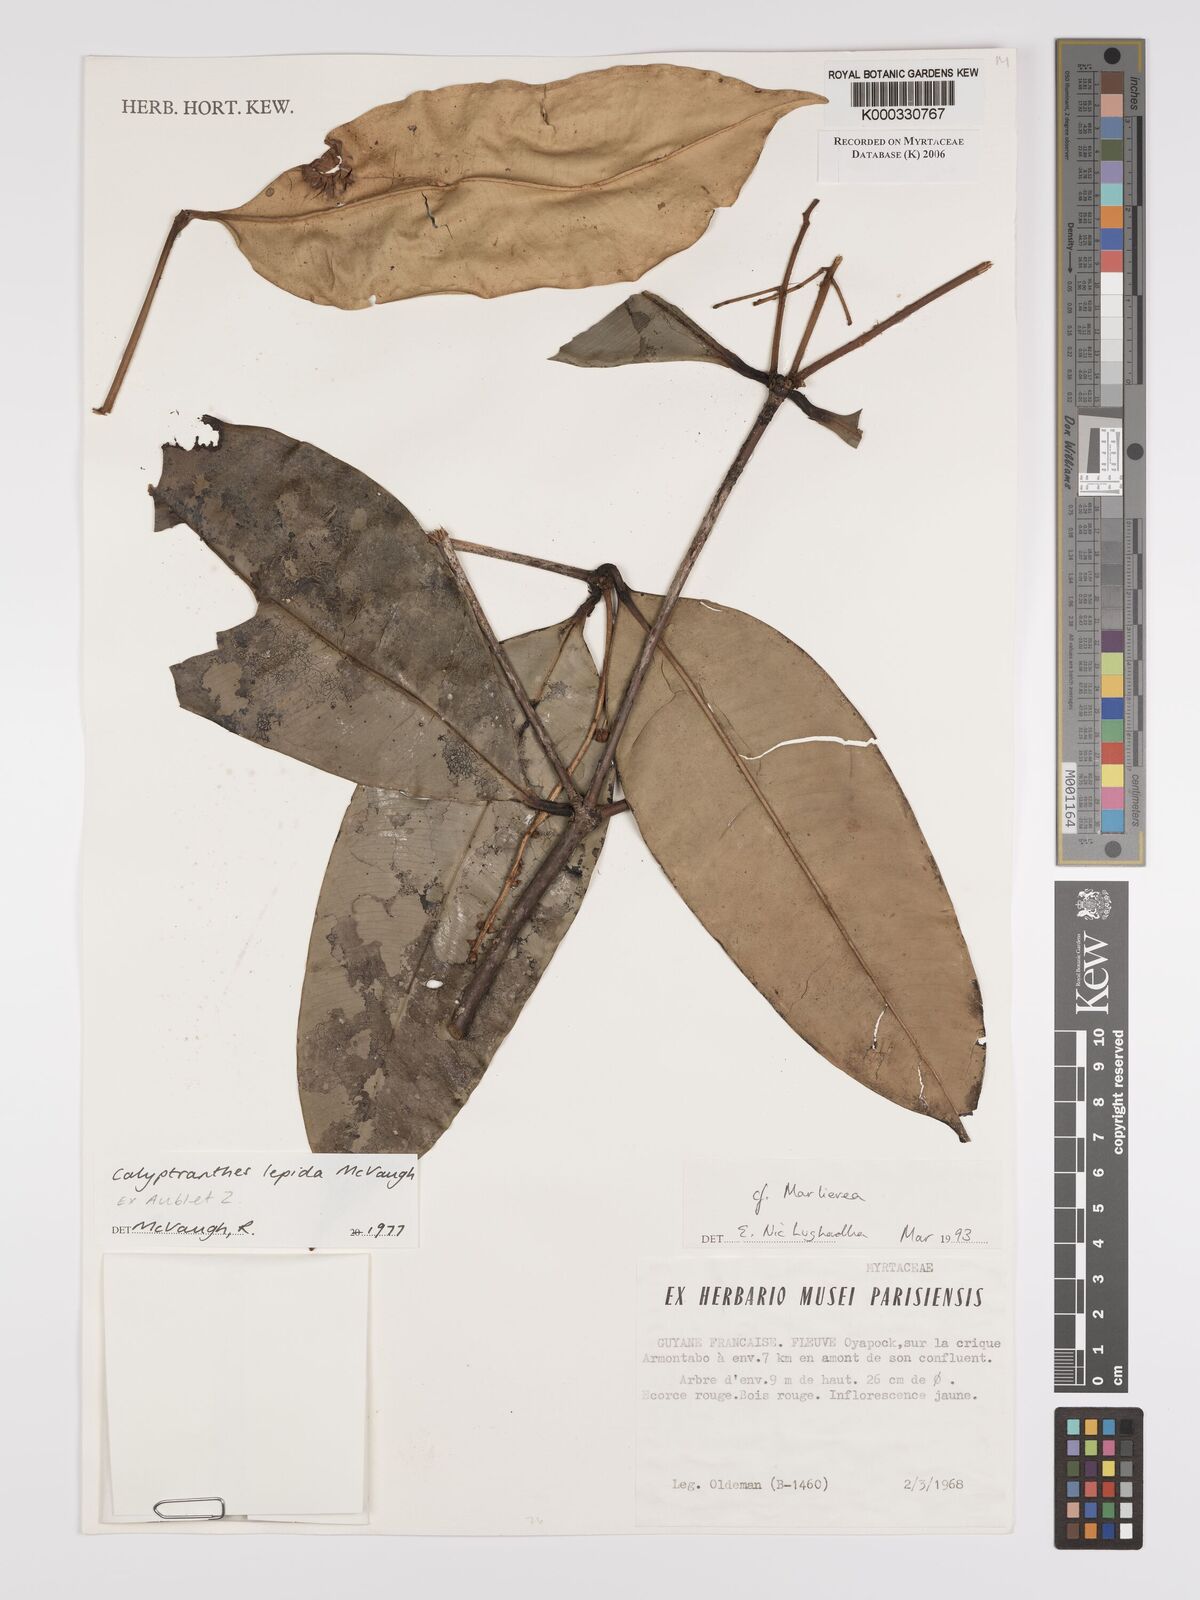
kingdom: Plantae
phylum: Tracheophyta
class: Magnoliopsida
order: Myrtales
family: Myrtaceae
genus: Myrcia
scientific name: Myrcia lepida
